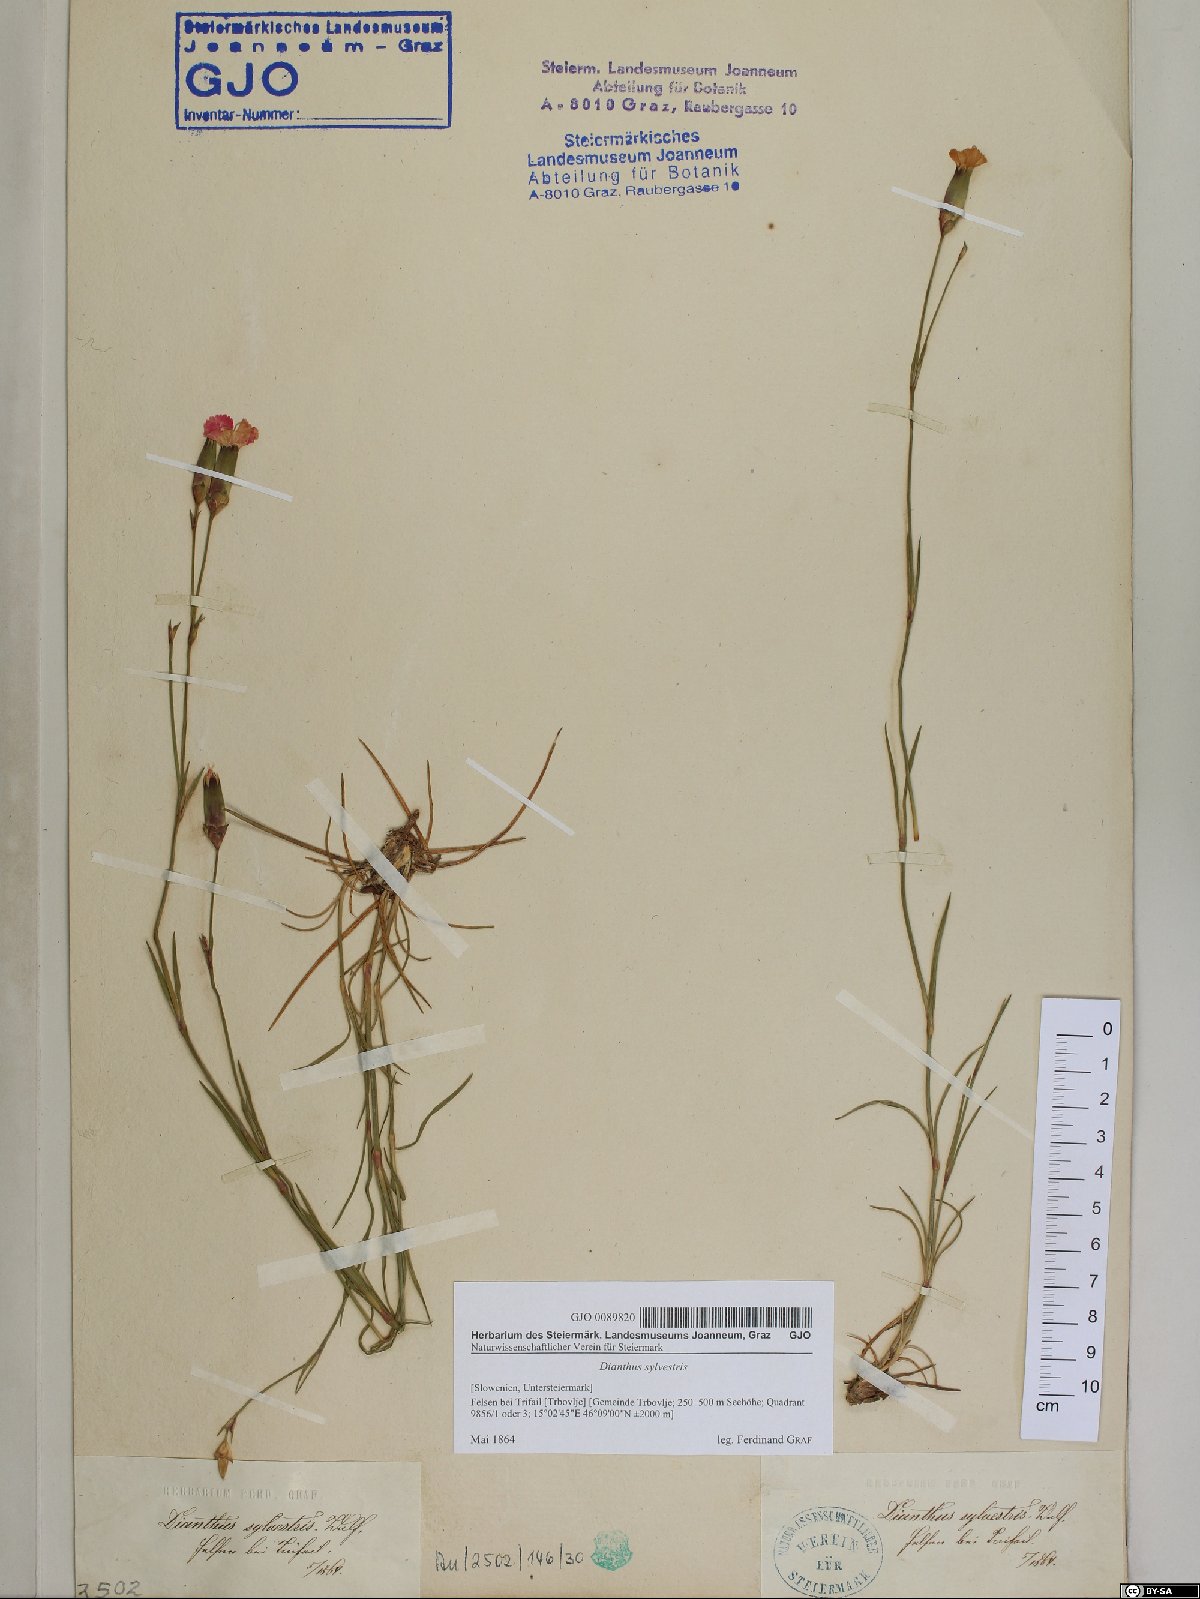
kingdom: Plantae
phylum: Tracheophyta
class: Magnoliopsida
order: Caryophyllales
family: Caryophyllaceae
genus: Dianthus
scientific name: Dianthus sylvestris
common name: Wood pink
